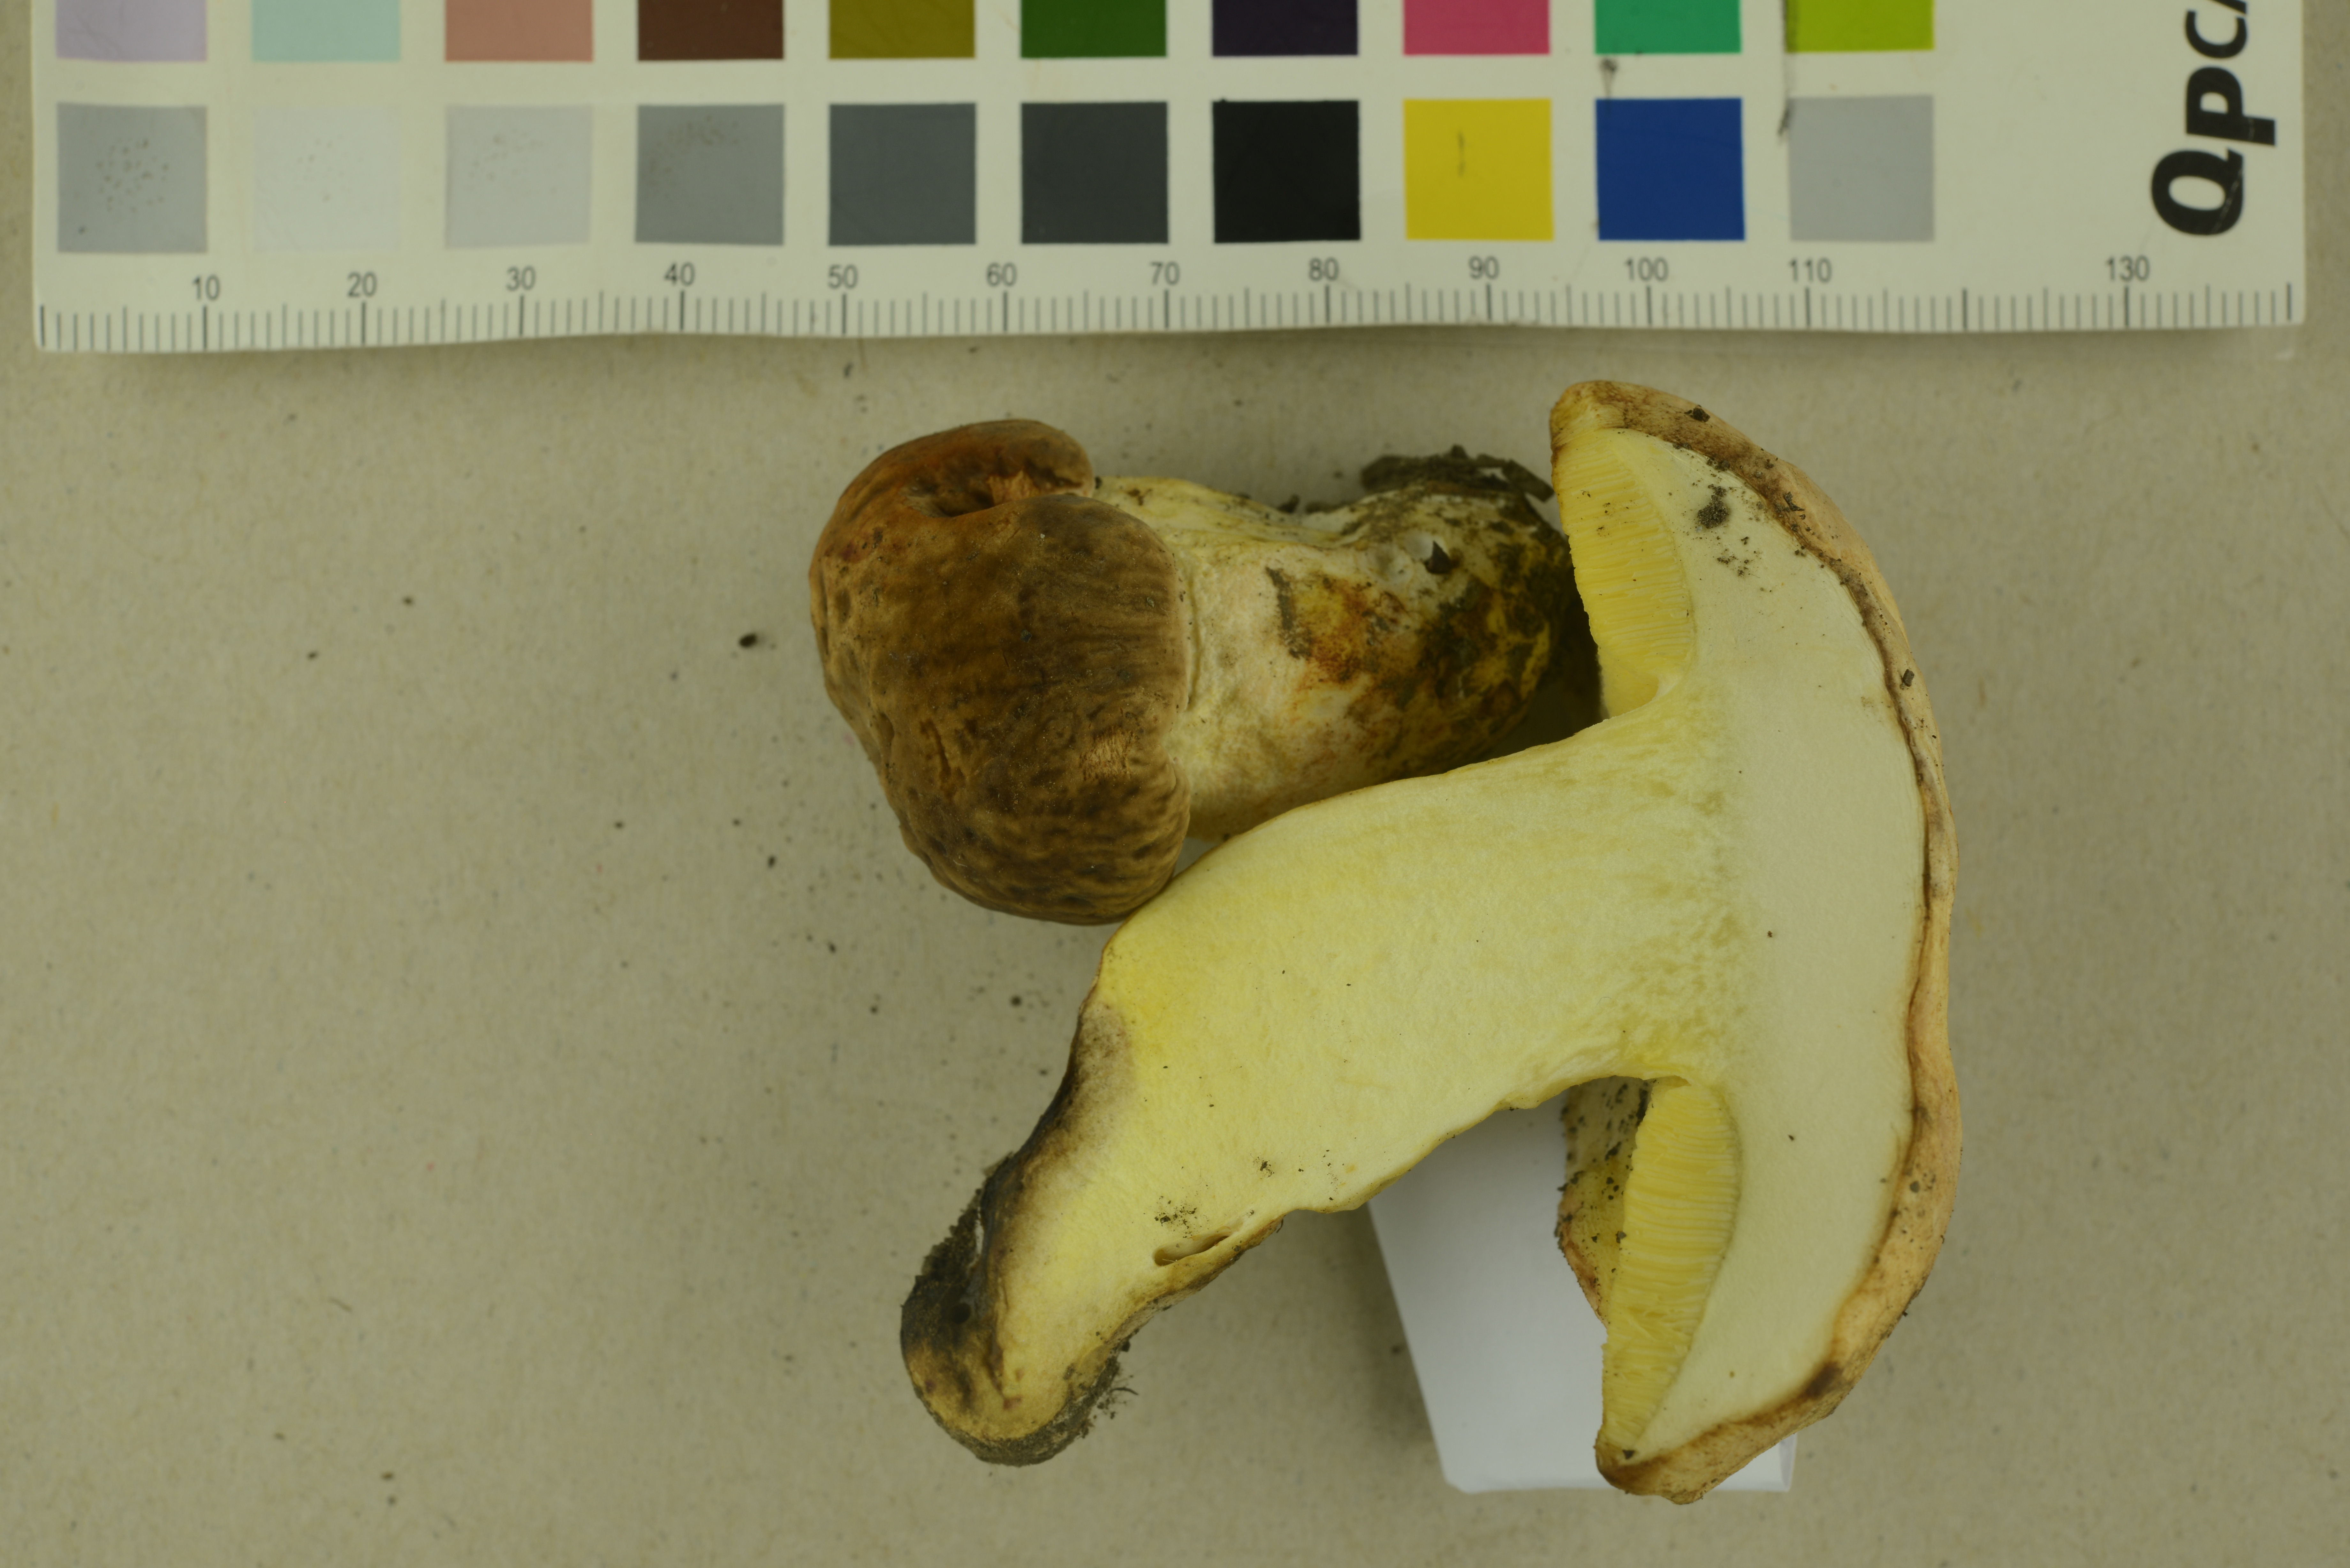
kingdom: Fungi
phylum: Basidiomycota
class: Agaricomycetes
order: Boletales
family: Boletaceae
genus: Hemileccinum
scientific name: Hemileccinum depilatum
